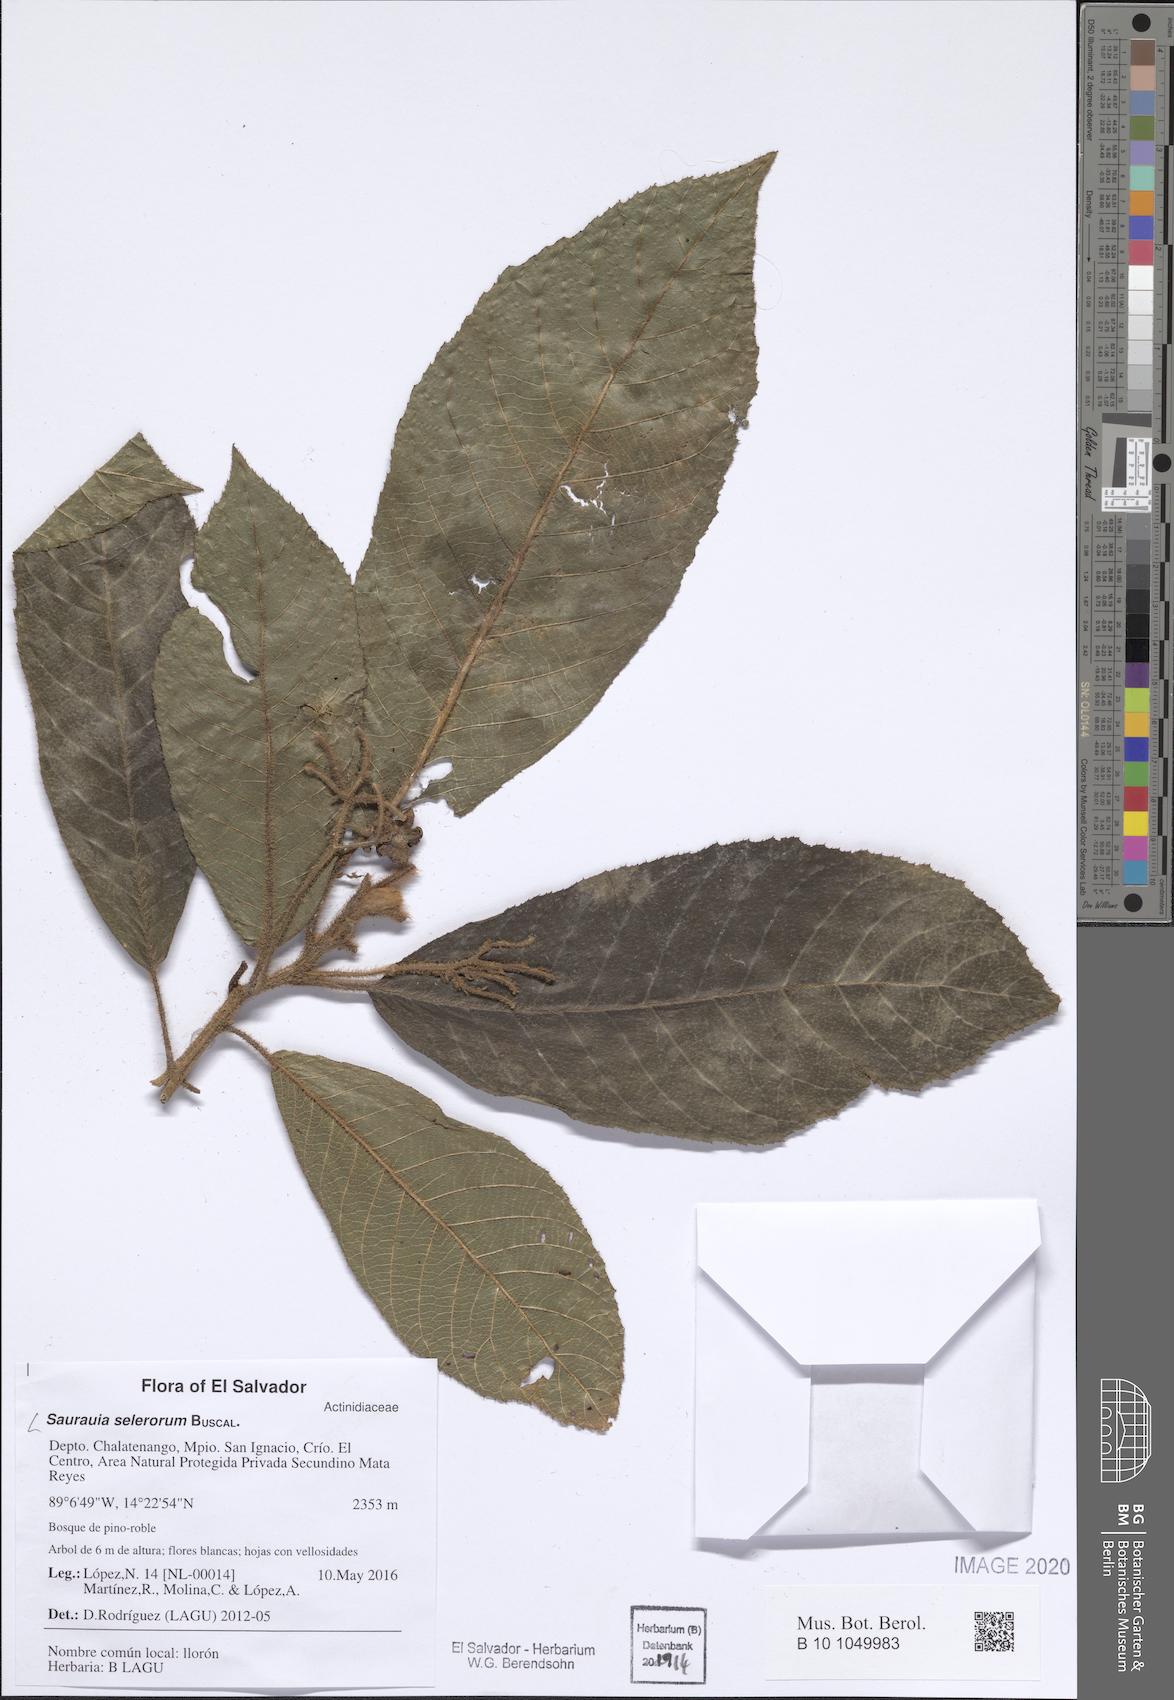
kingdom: Plantae
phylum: Tracheophyta
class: Magnoliopsida
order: Ericales
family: Actinidiaceae
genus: Saurauia
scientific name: Saurauia selerorum
